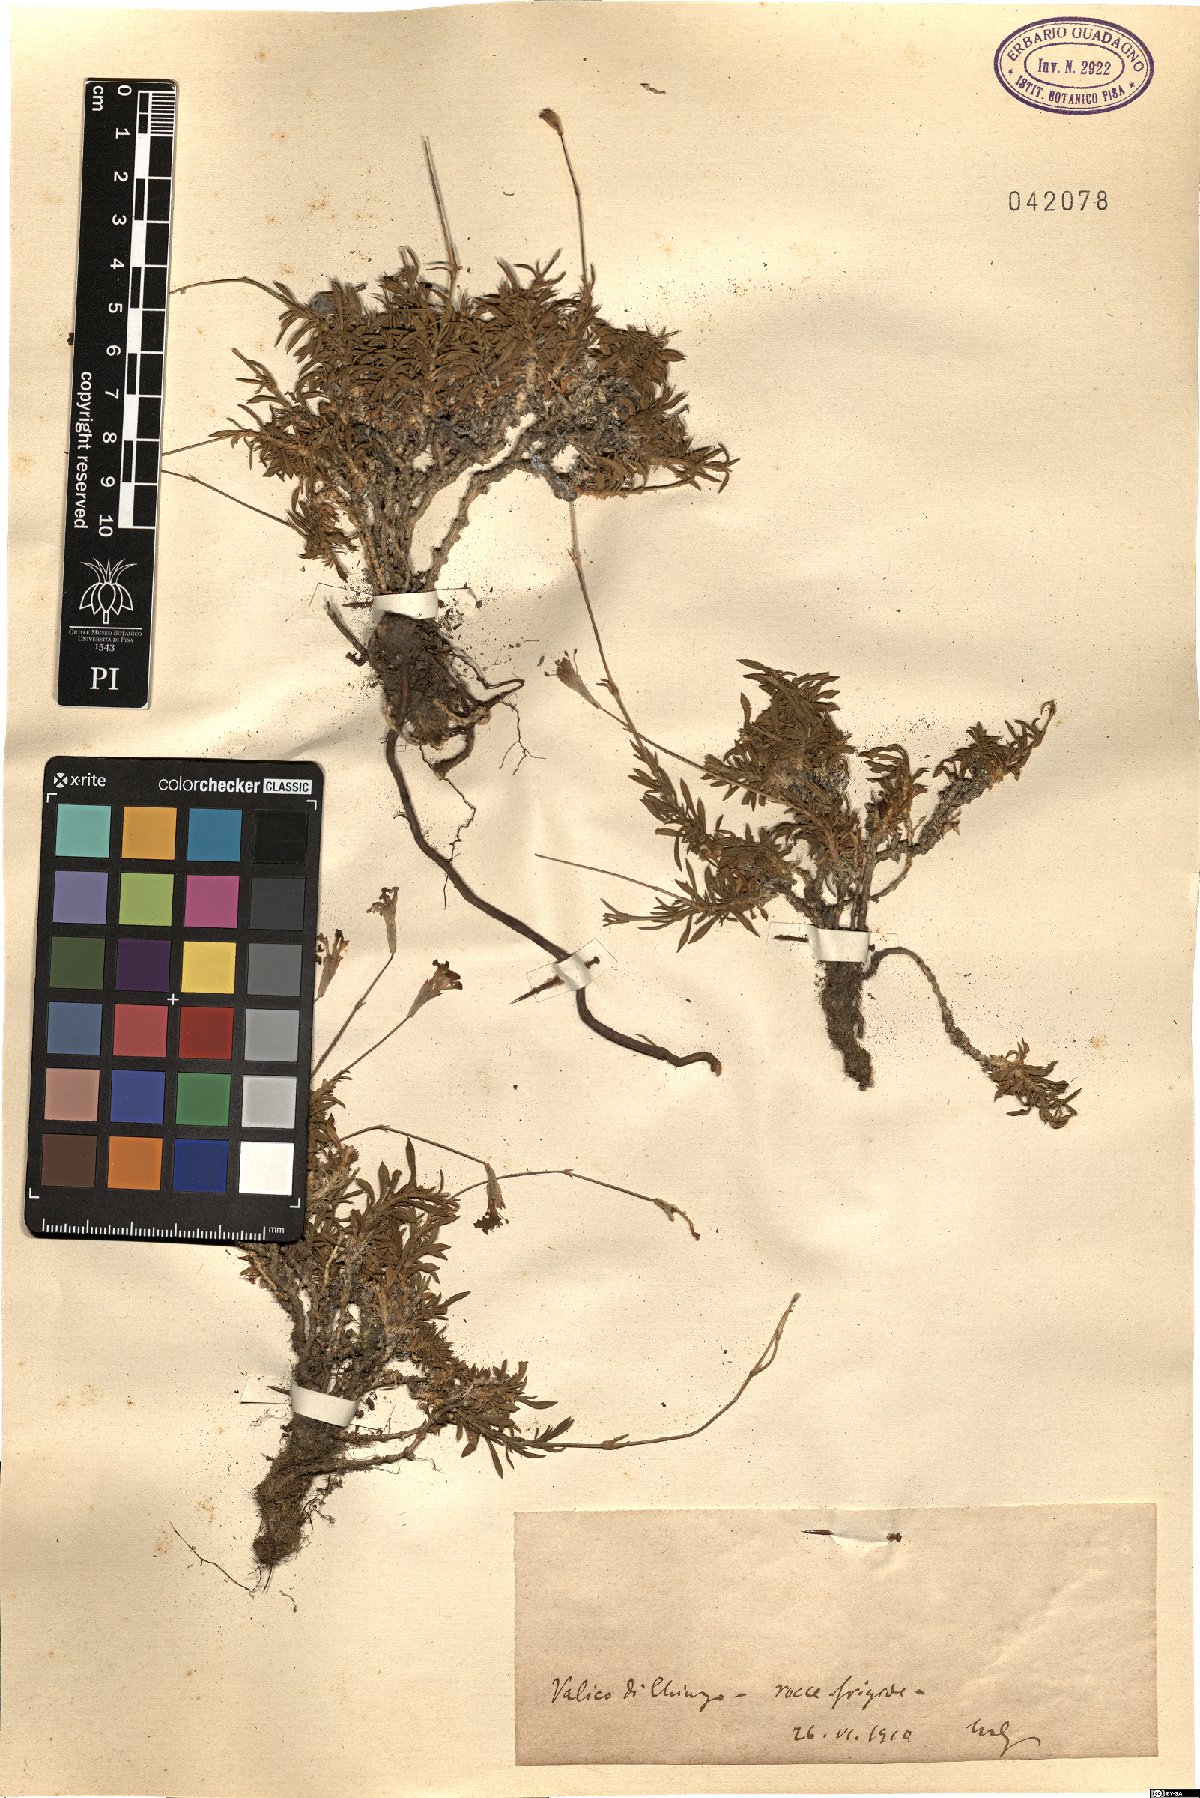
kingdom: Plantae
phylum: Tracheophyta
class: Magnoliopsida
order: Caryophyllales
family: Caryophyllaceae
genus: Silene
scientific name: Silene
